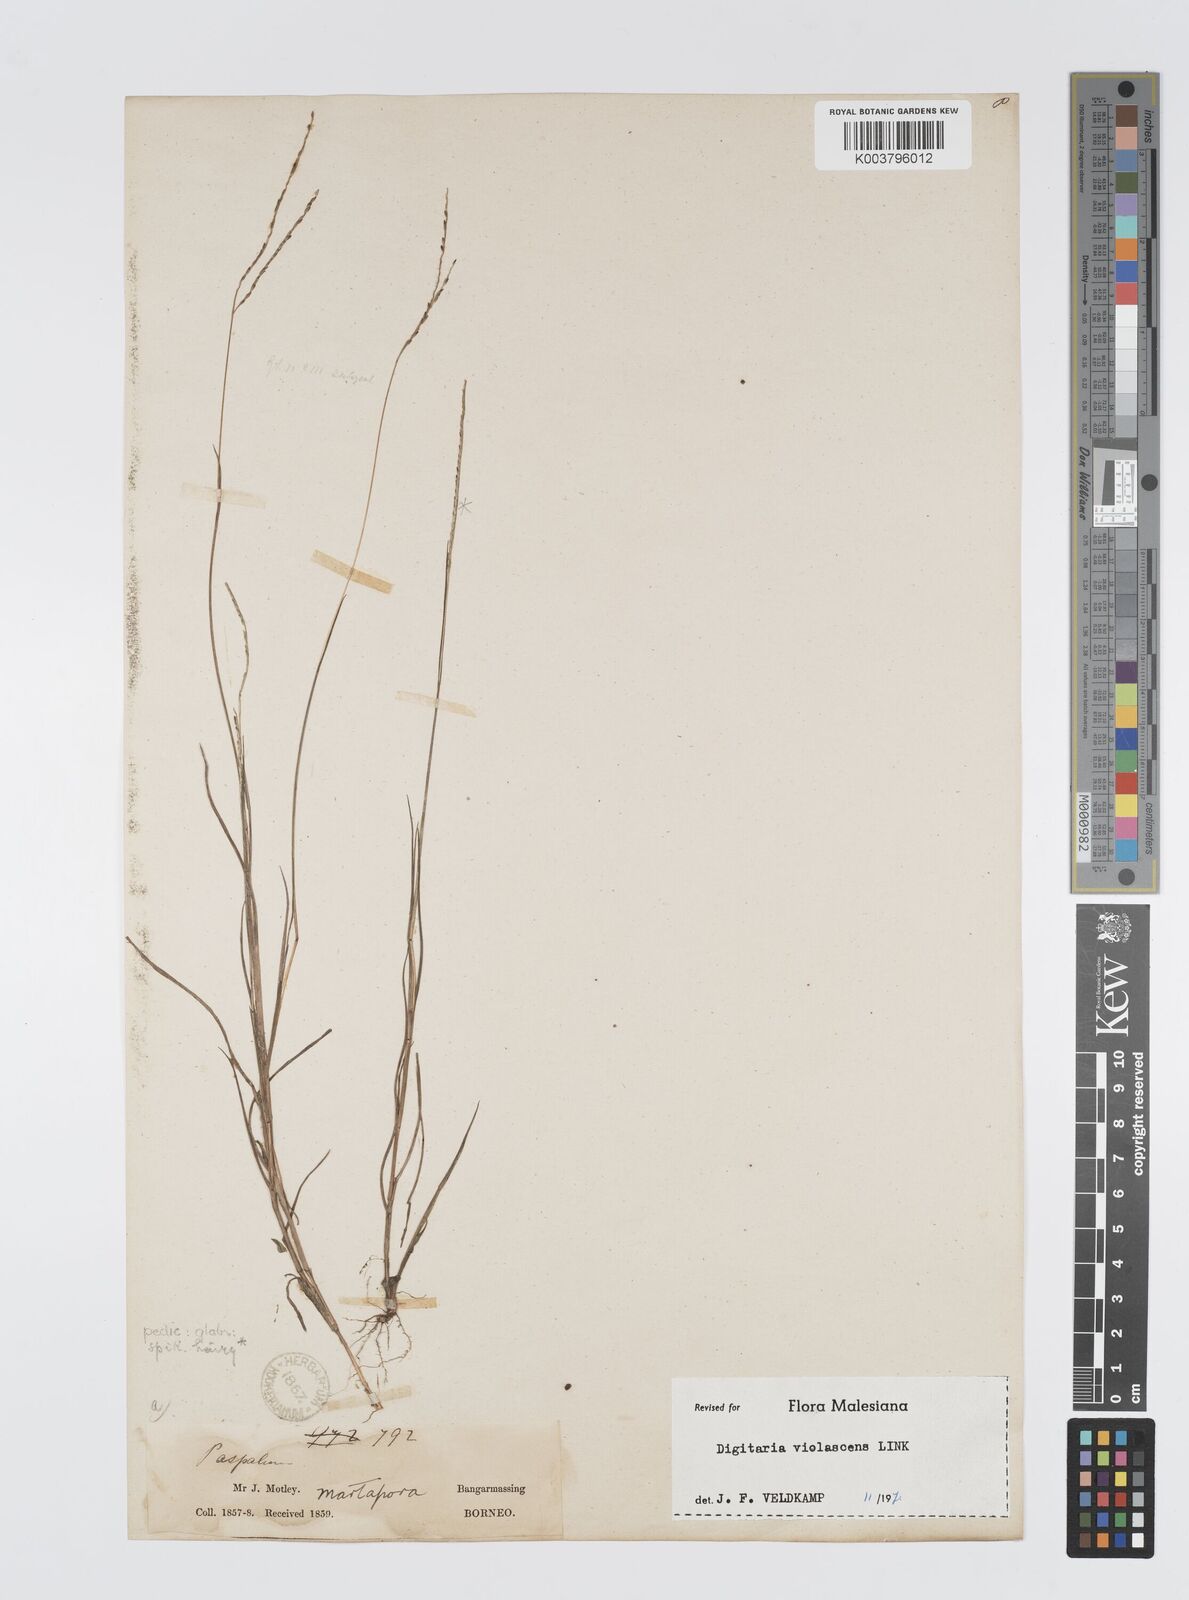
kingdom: Plantae
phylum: Tracheophyta
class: Liliopsida
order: Poales
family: Poaceae
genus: Digitaria
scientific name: Digitaria spec
